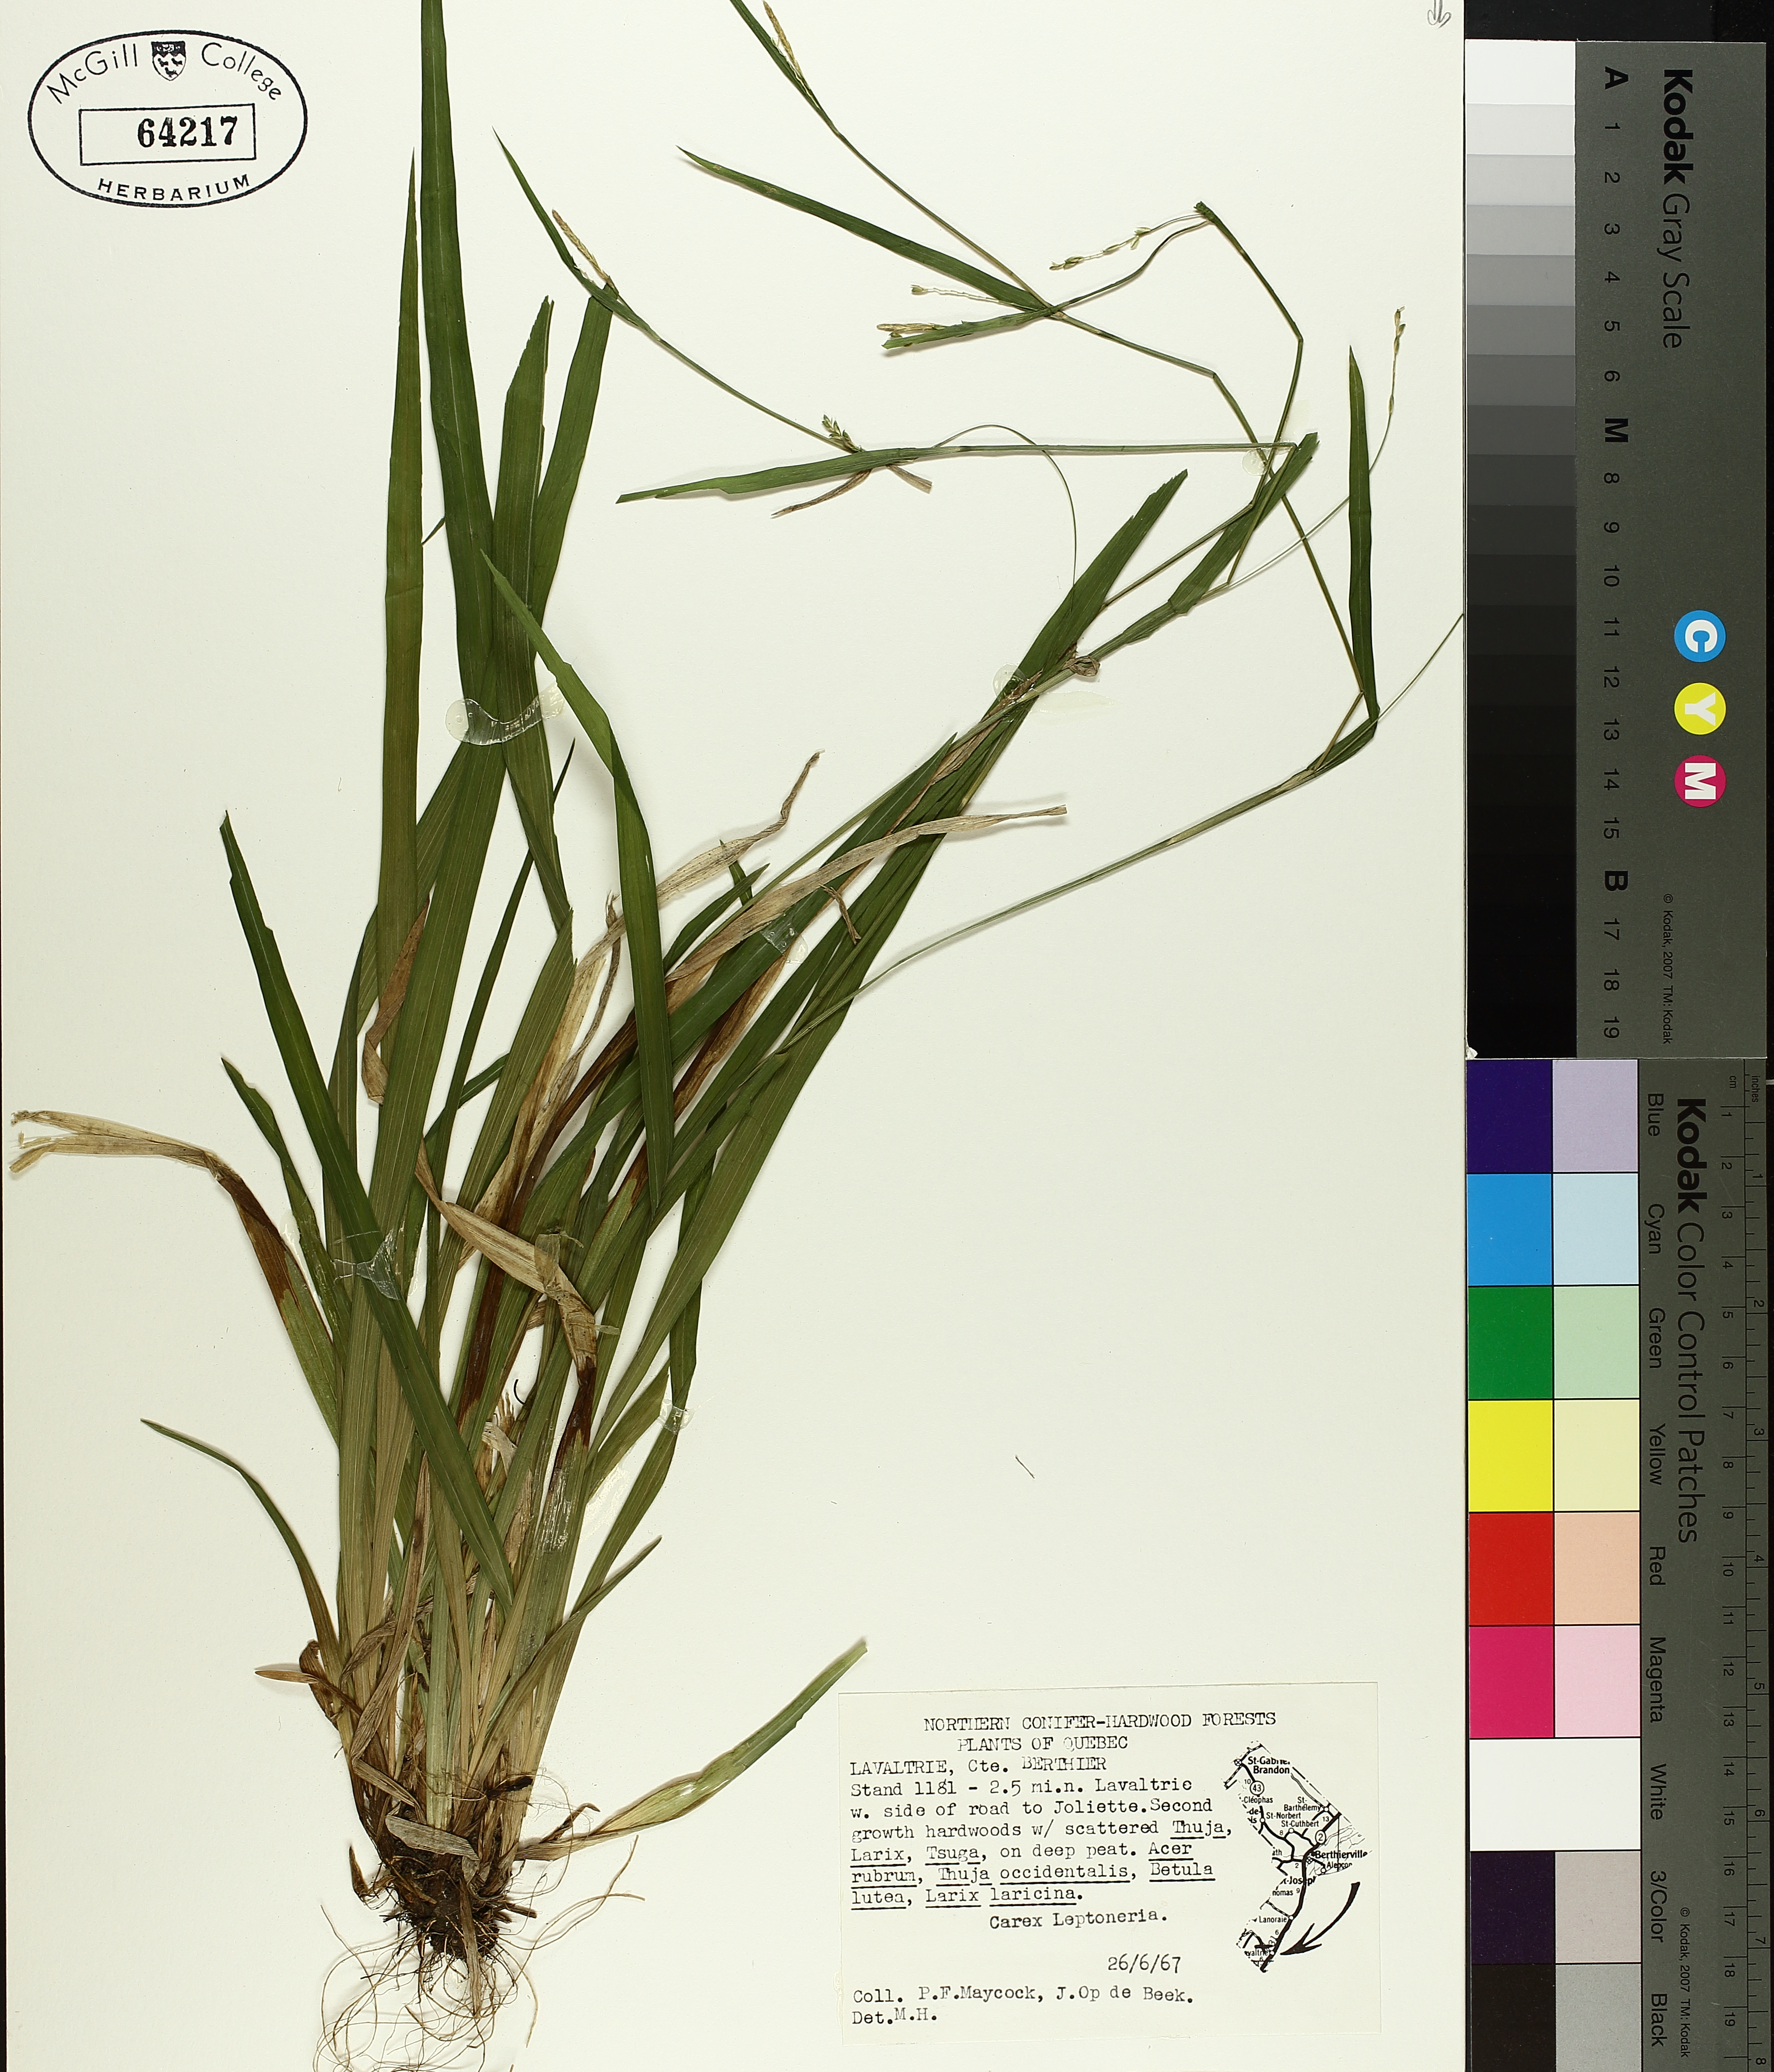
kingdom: Plantae
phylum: Tracheophyta
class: Liliopsida
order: Poales
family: Cyperaceae
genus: Carex
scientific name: Carex leptonervia
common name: Few-nerved wood sedge
